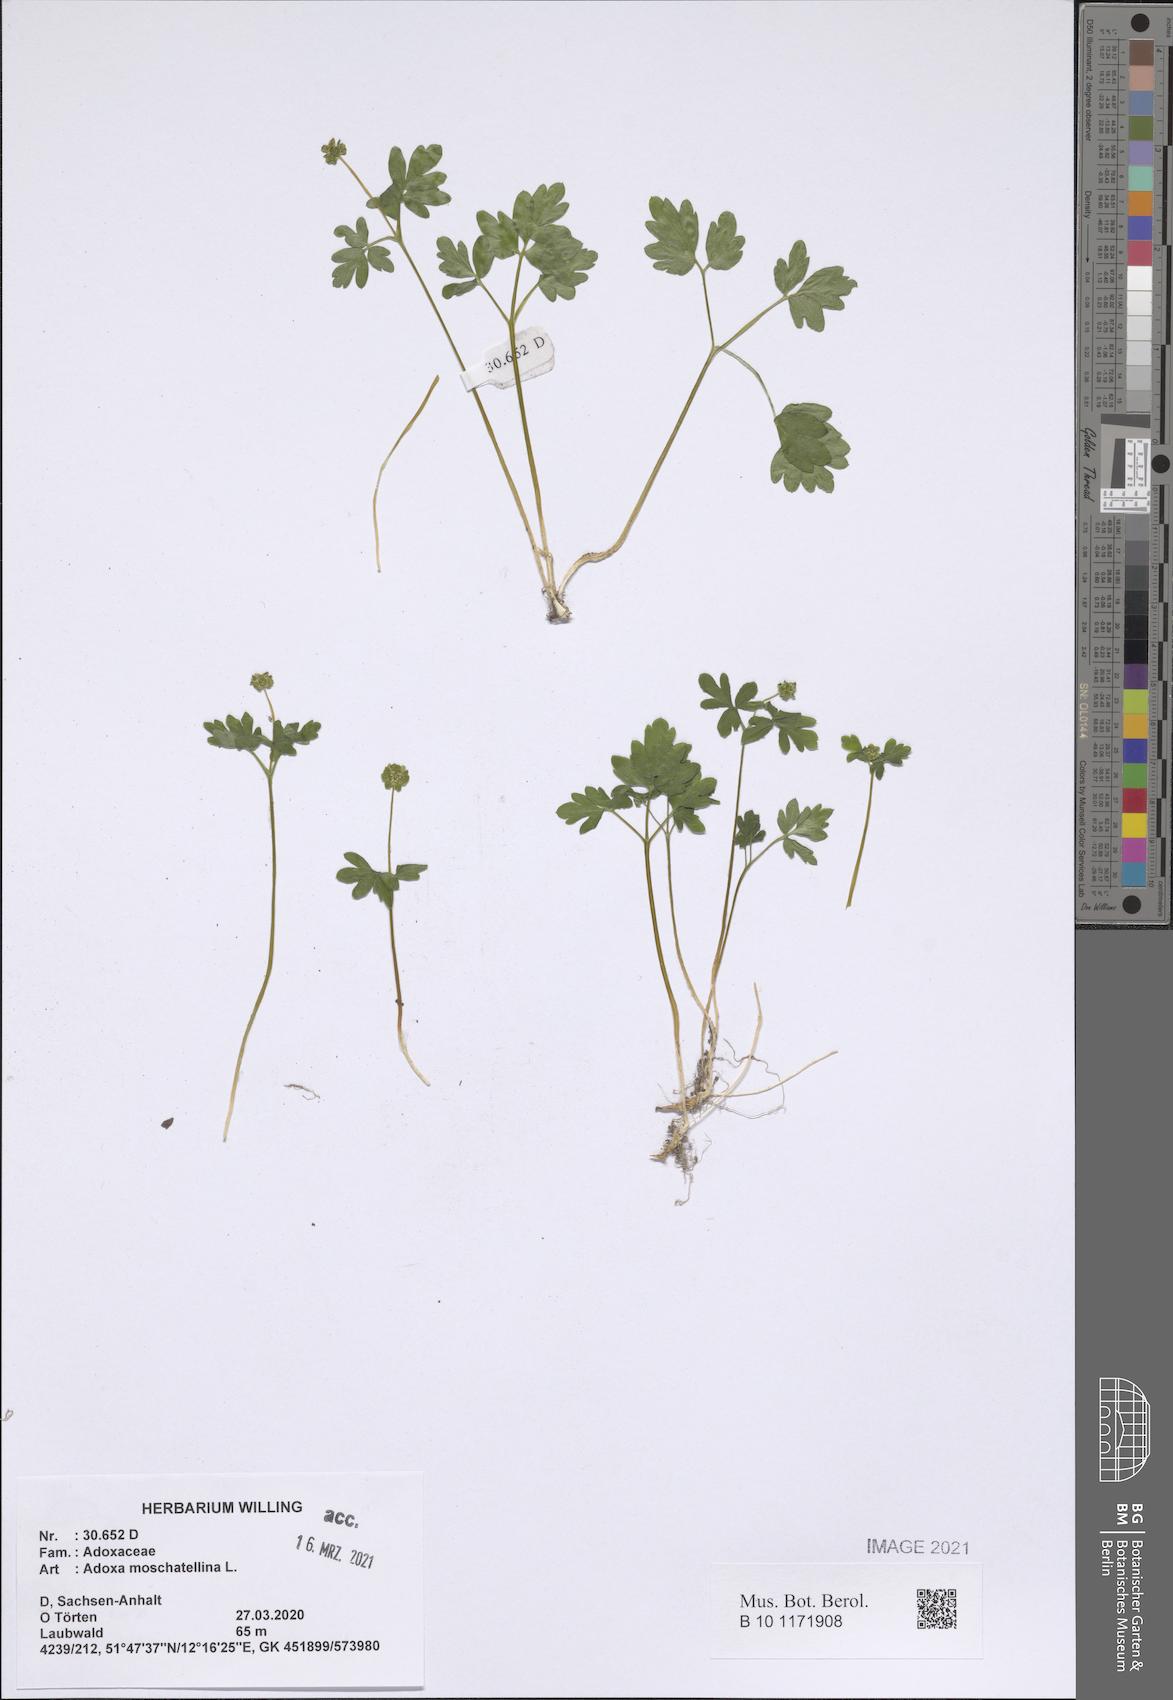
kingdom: Plantae
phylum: Tracheophyta
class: Magnoliopsida
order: Dipsacales
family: Viburnaceae
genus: Adoxa
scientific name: Adoxa moschatellina
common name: Moschatel
